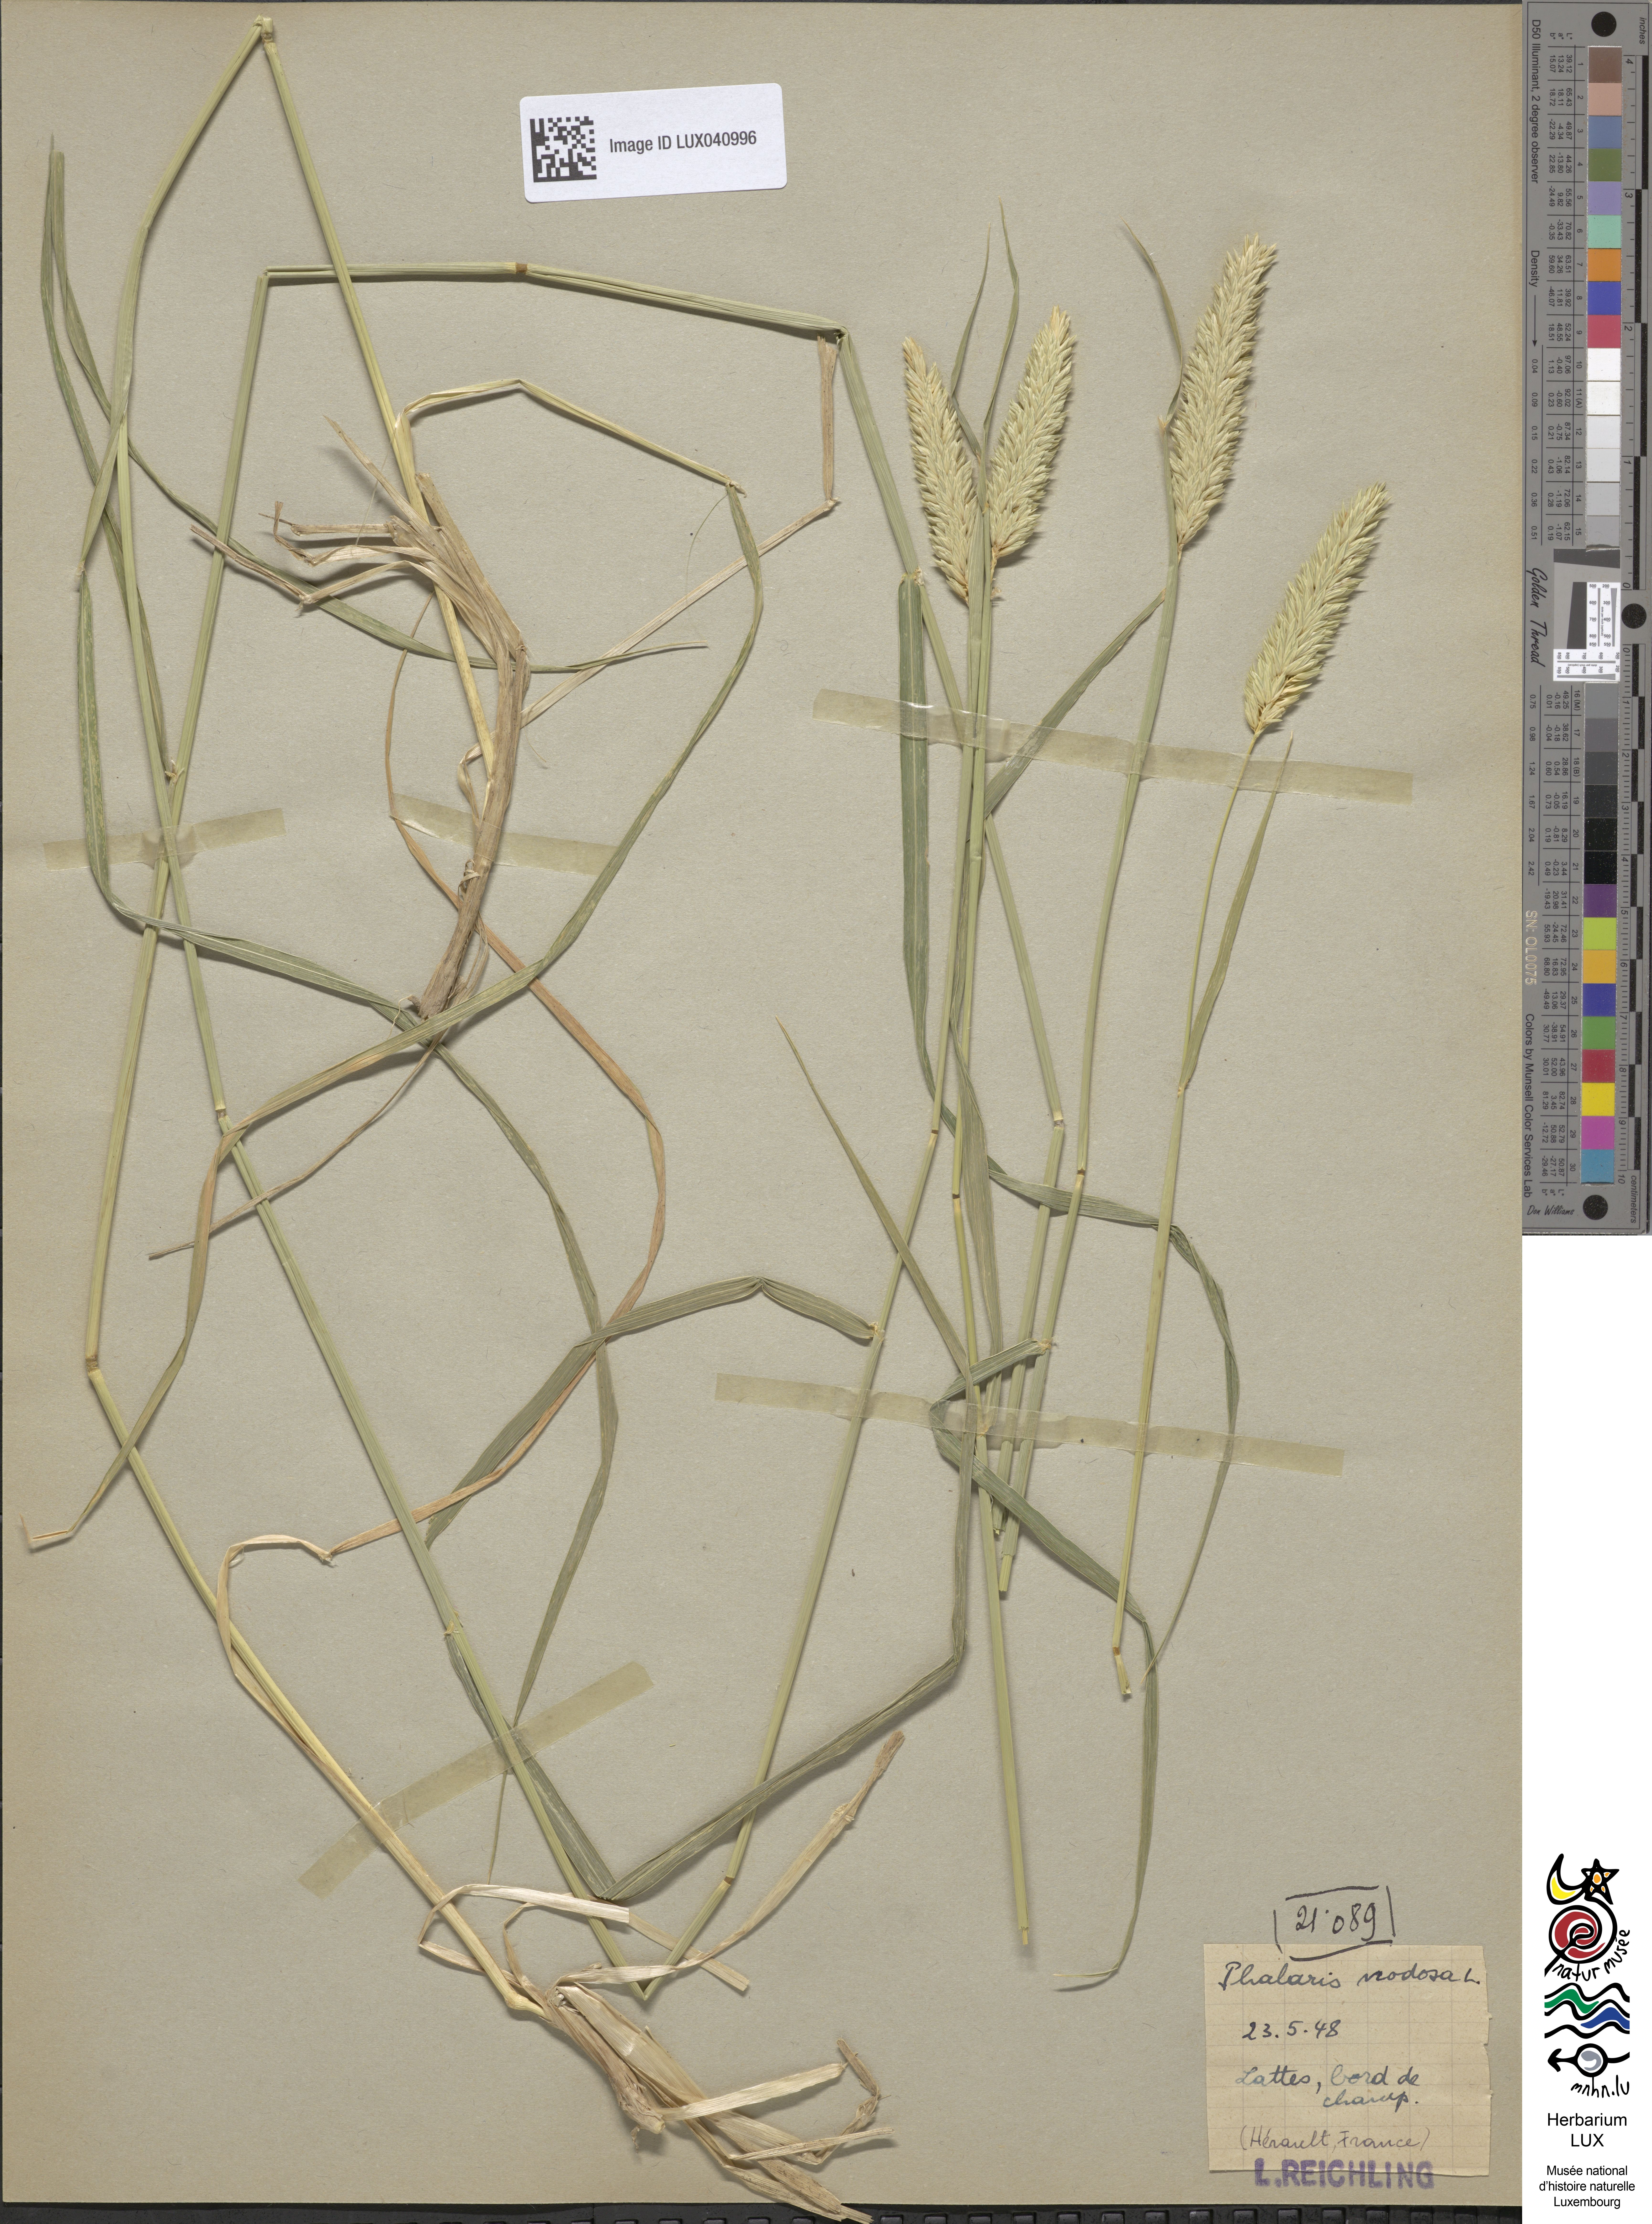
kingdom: Plantae
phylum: Tracheophyta
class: Liliopsida
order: Poales
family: Poaceae
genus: Phalaris
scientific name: Phalaris aquatica
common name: Bulbous canary-grass
